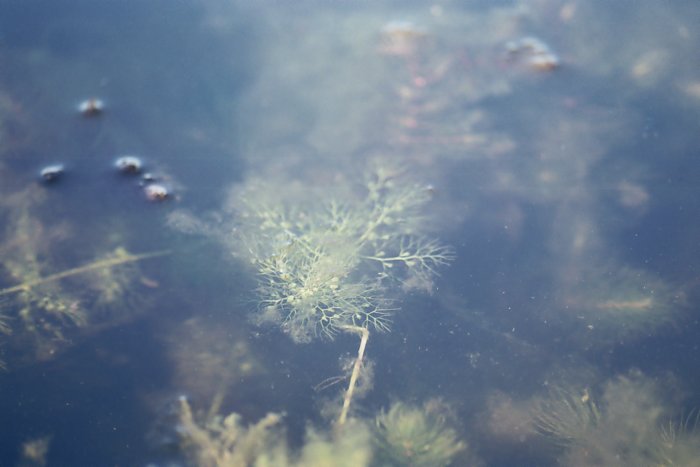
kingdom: Plantae
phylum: Tracheophyta
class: Magnoliopsida
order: Lamiales
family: Lentibulariaceae
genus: Utricularia
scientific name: Utricularia vulgaris
